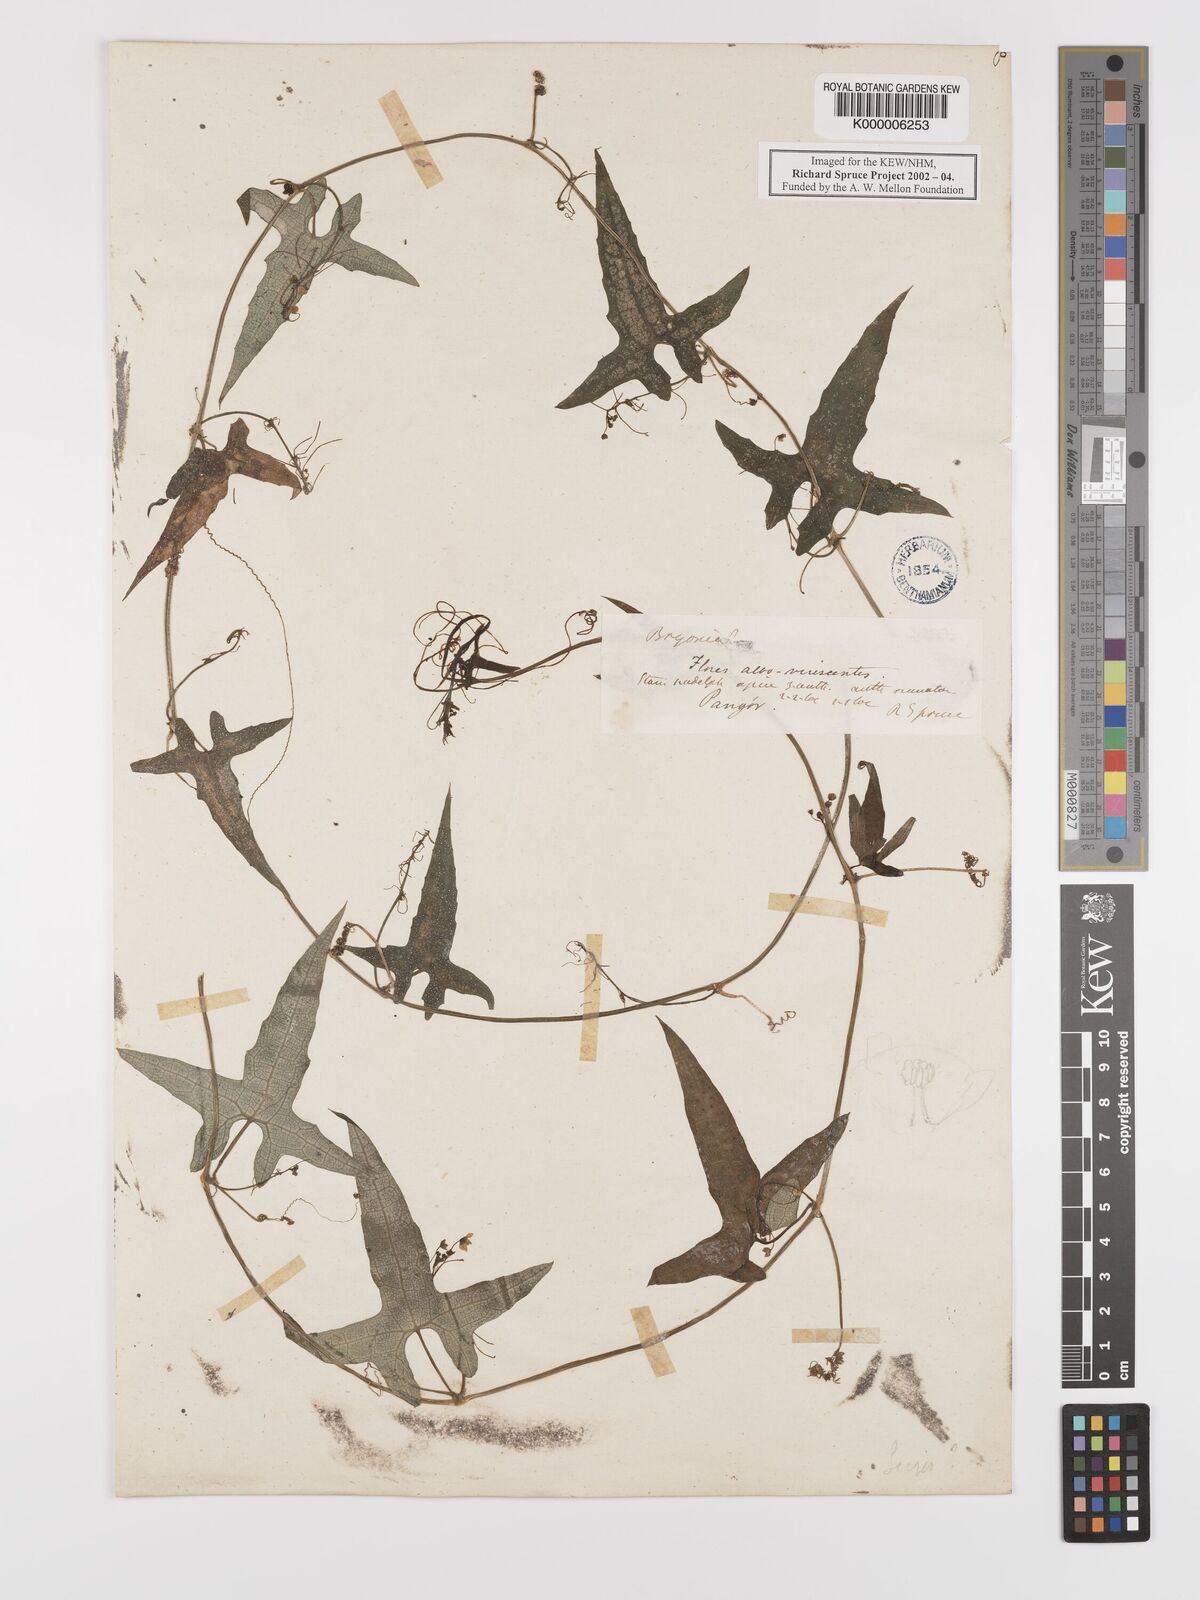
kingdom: Plantae
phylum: Tracheophyta
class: Magnoliopsida
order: Cucurbitales
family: Cucurbitaceae
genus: Sicyos
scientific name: Sicyos andreanus
